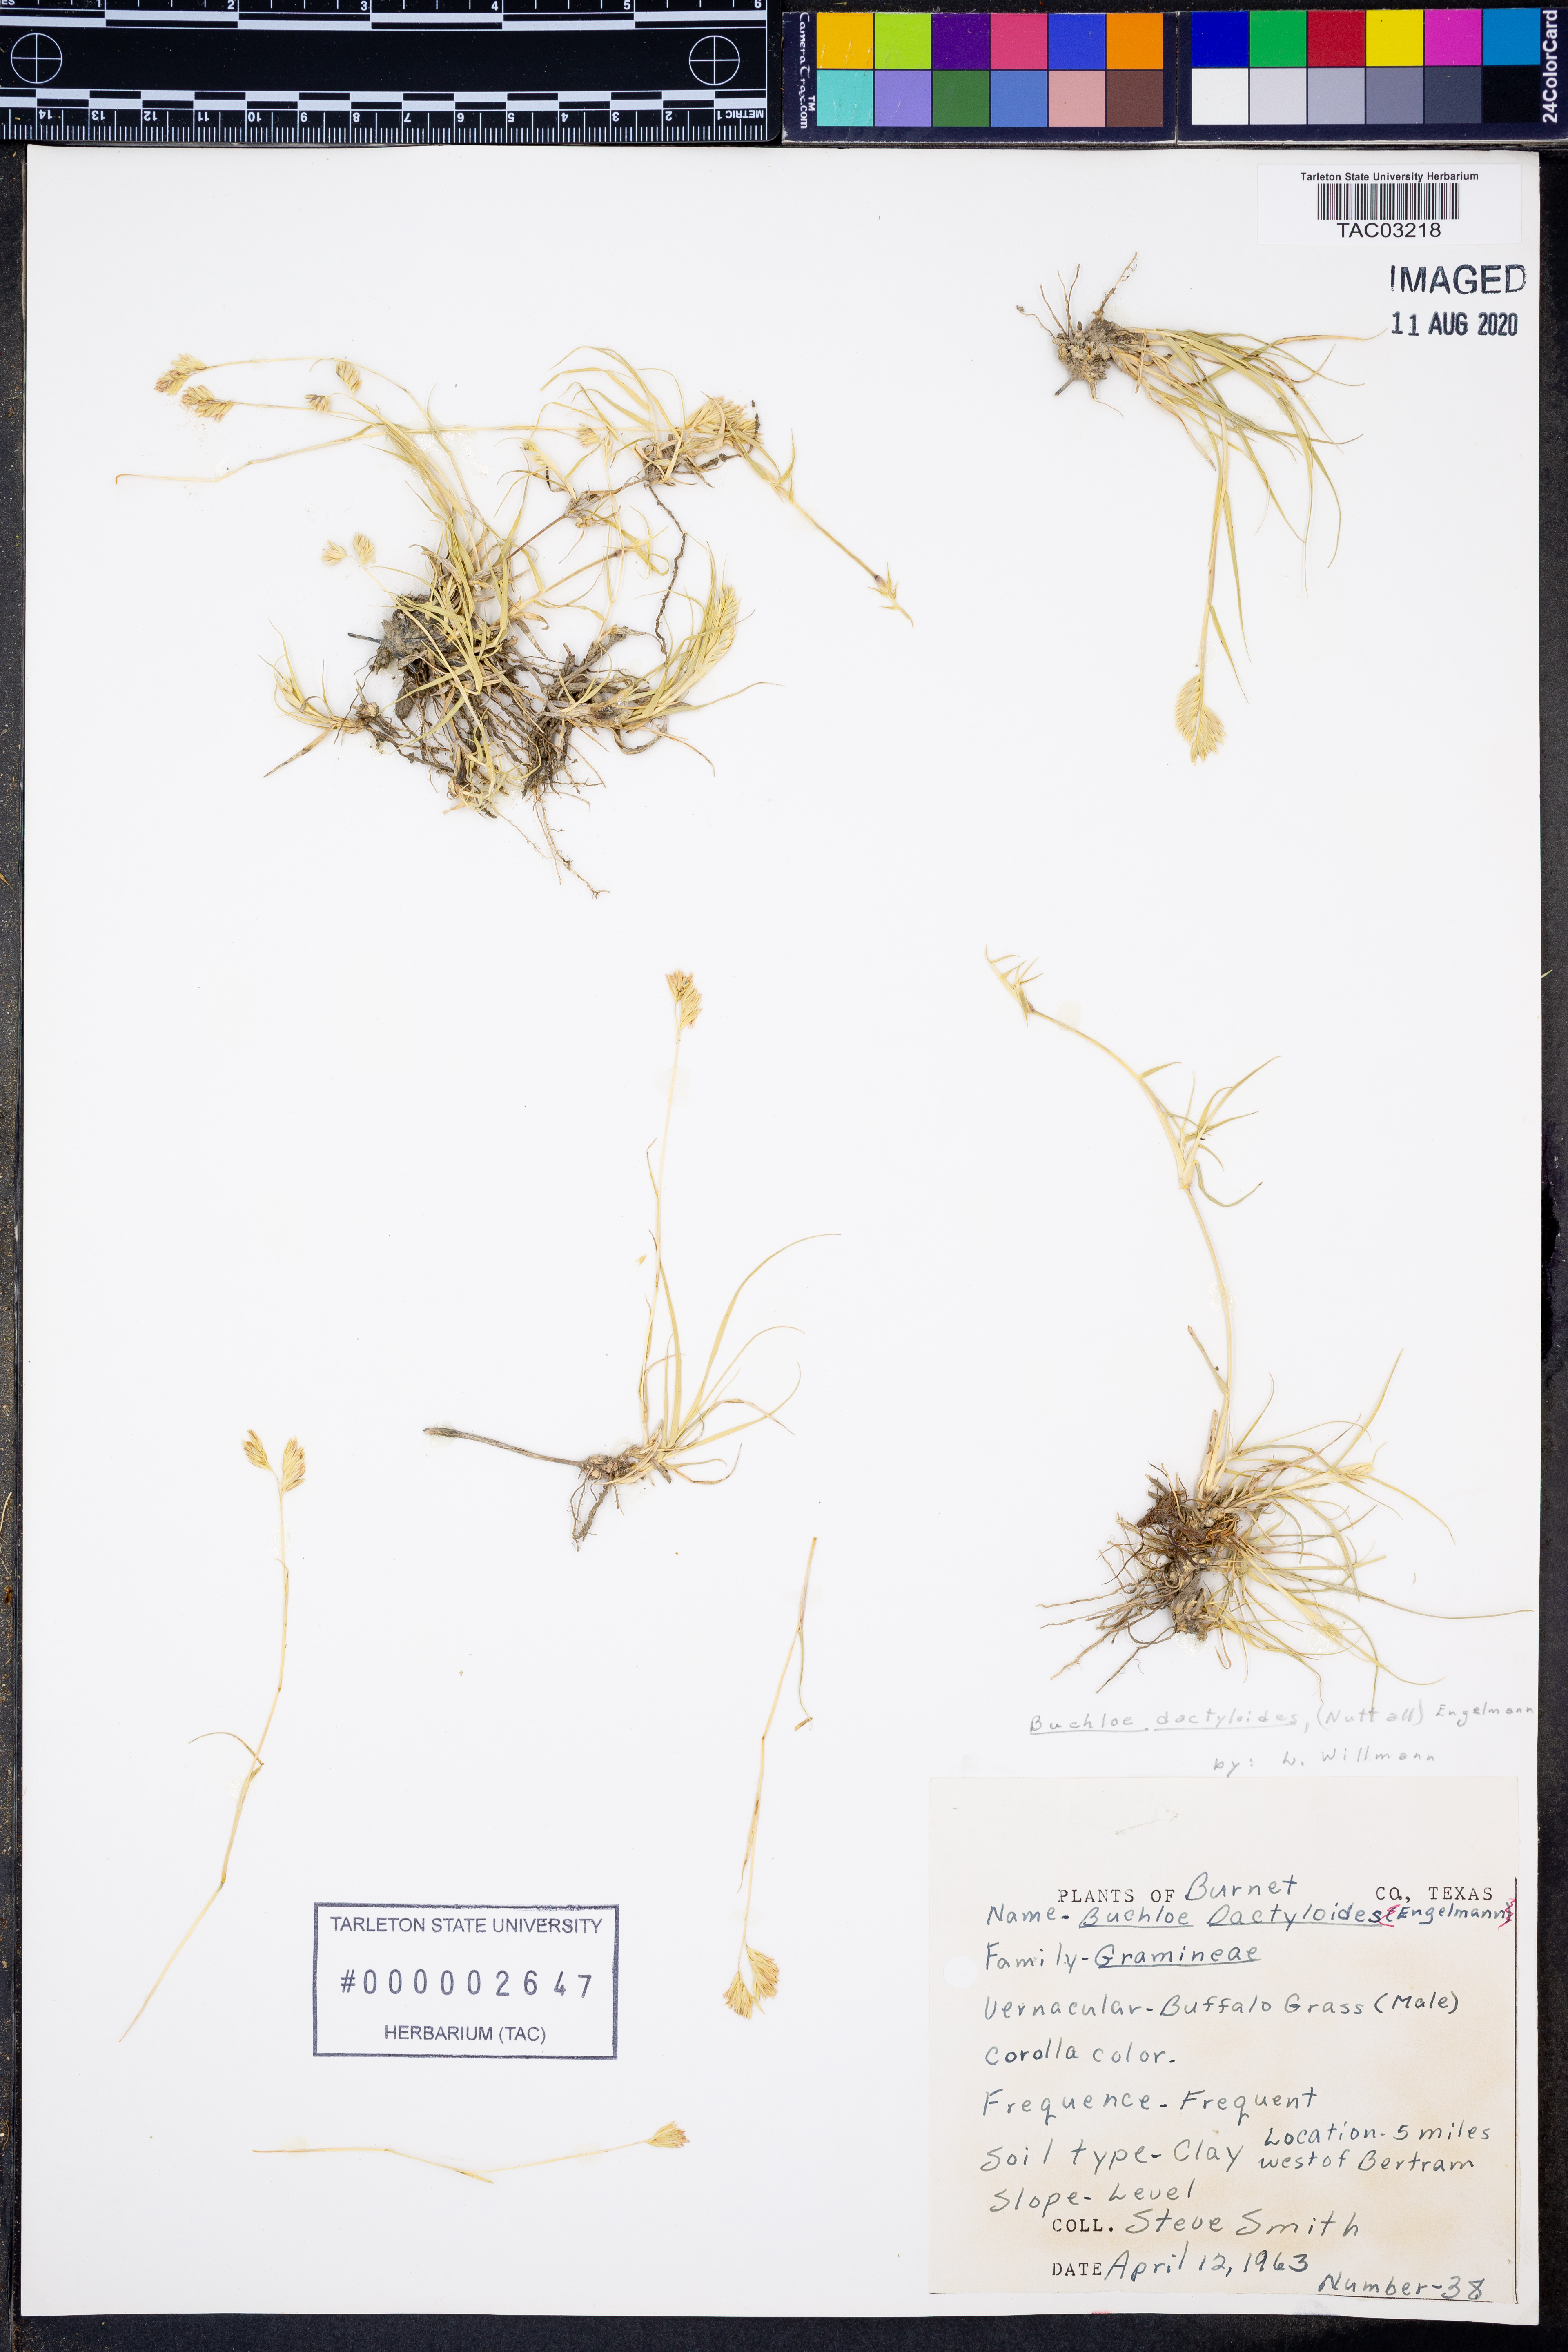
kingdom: Plantae
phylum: Tracheophyta
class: Liliopsida
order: Poales
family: Poaceae
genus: Bouteloua
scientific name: Bouteloua dactyloides
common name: Buffalo grass
